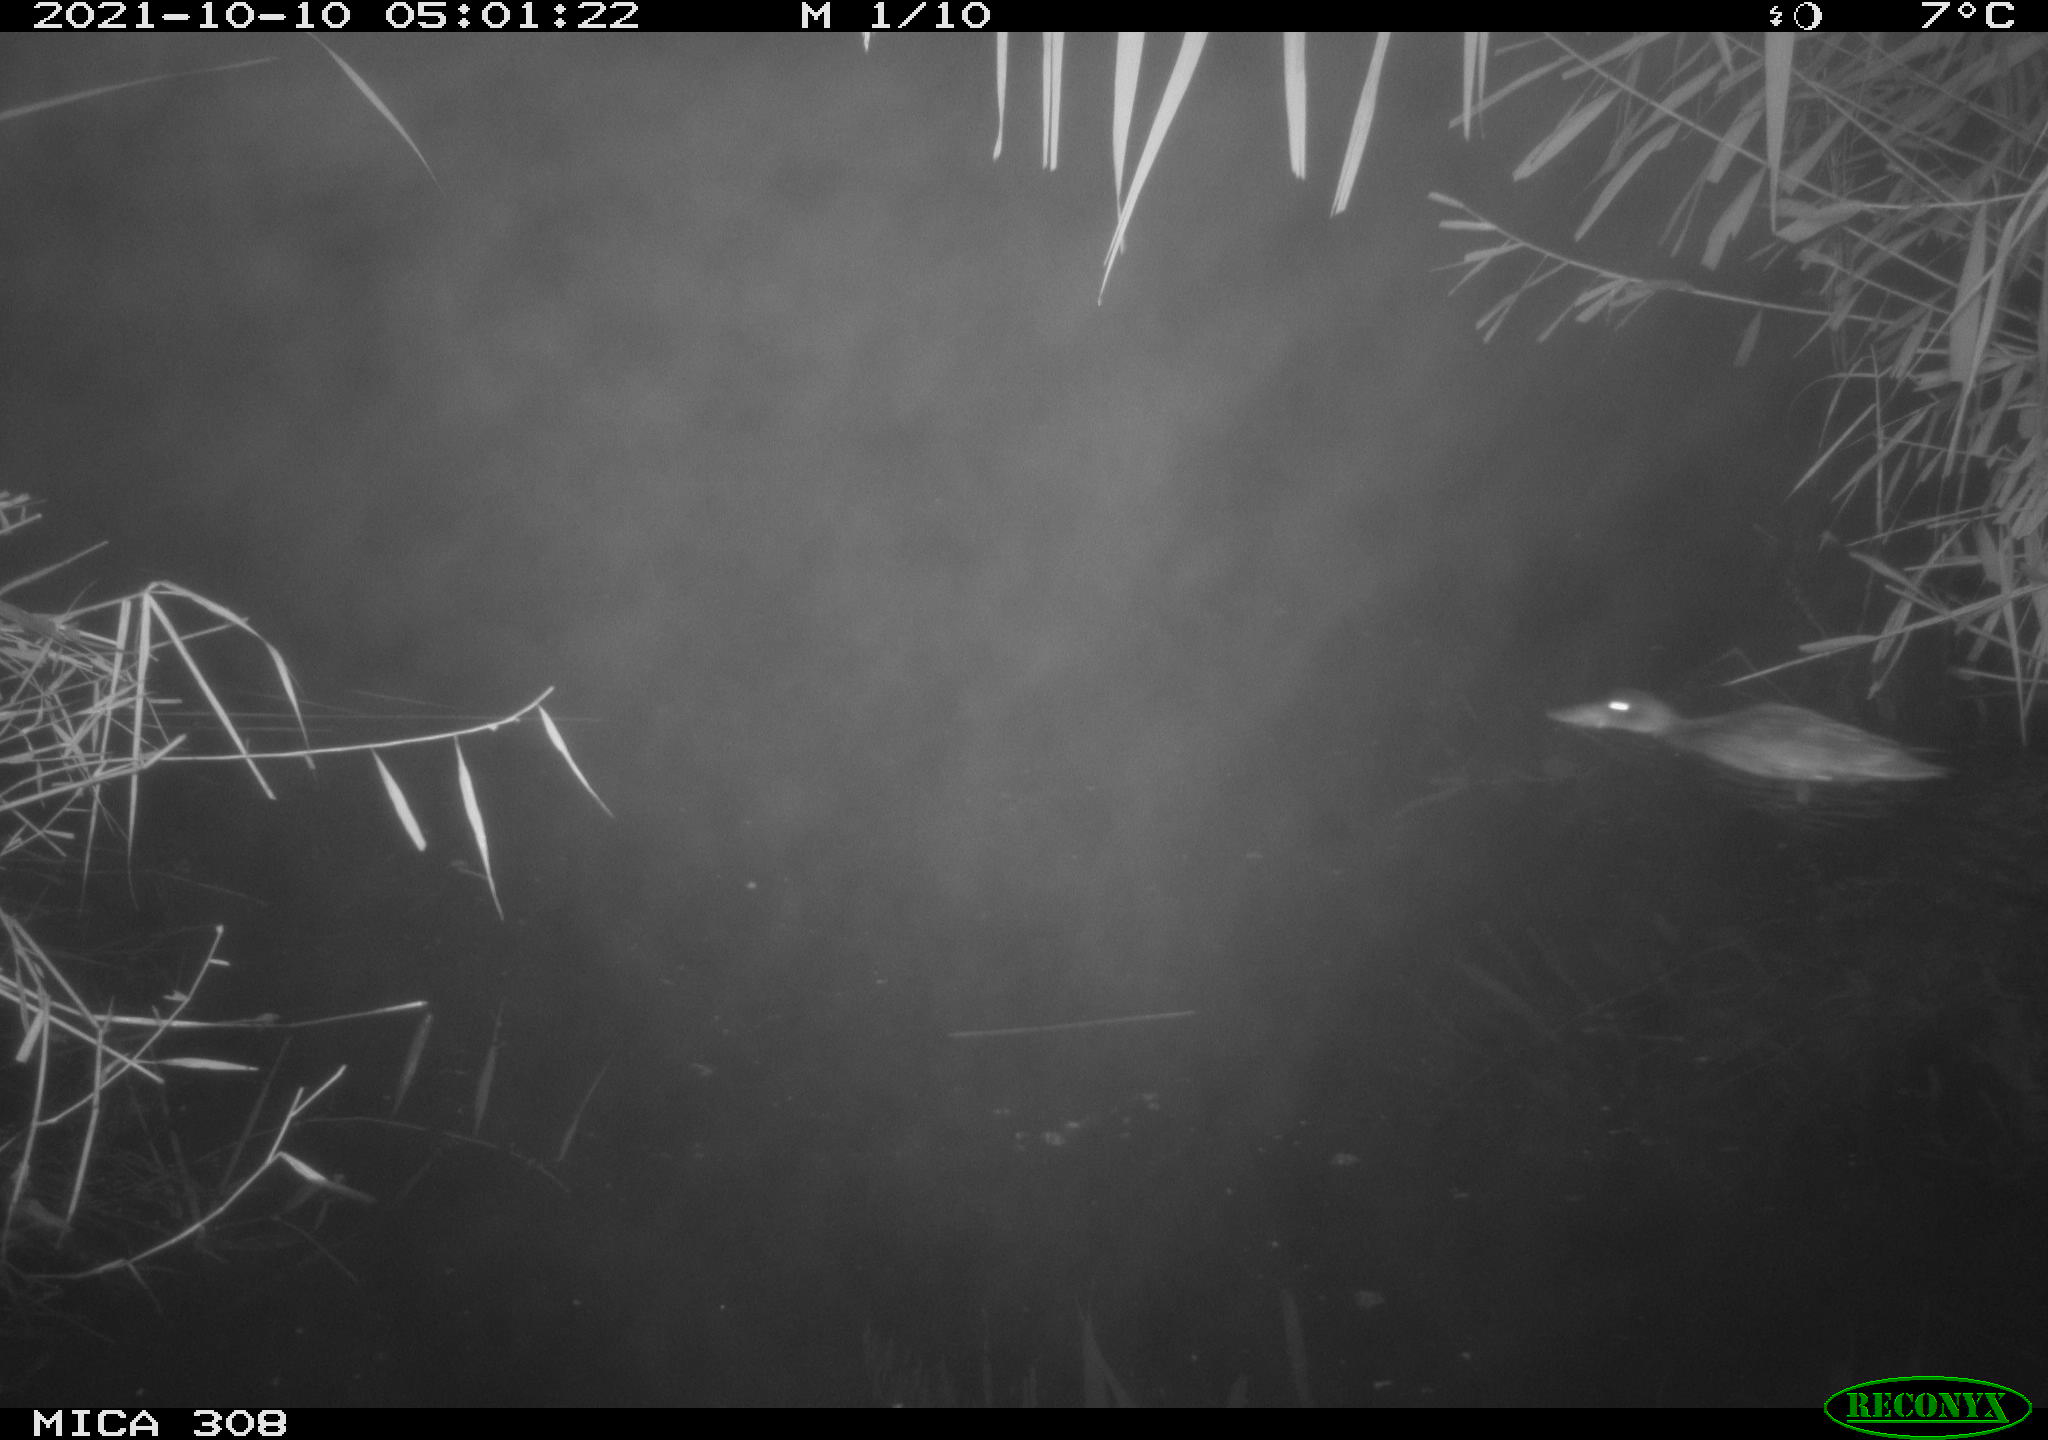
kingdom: Animalia
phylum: Chordata
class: Aves
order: Anseriformes
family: Anatidae
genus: Spatula
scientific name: Spatula clypeata
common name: Northern shoveler
